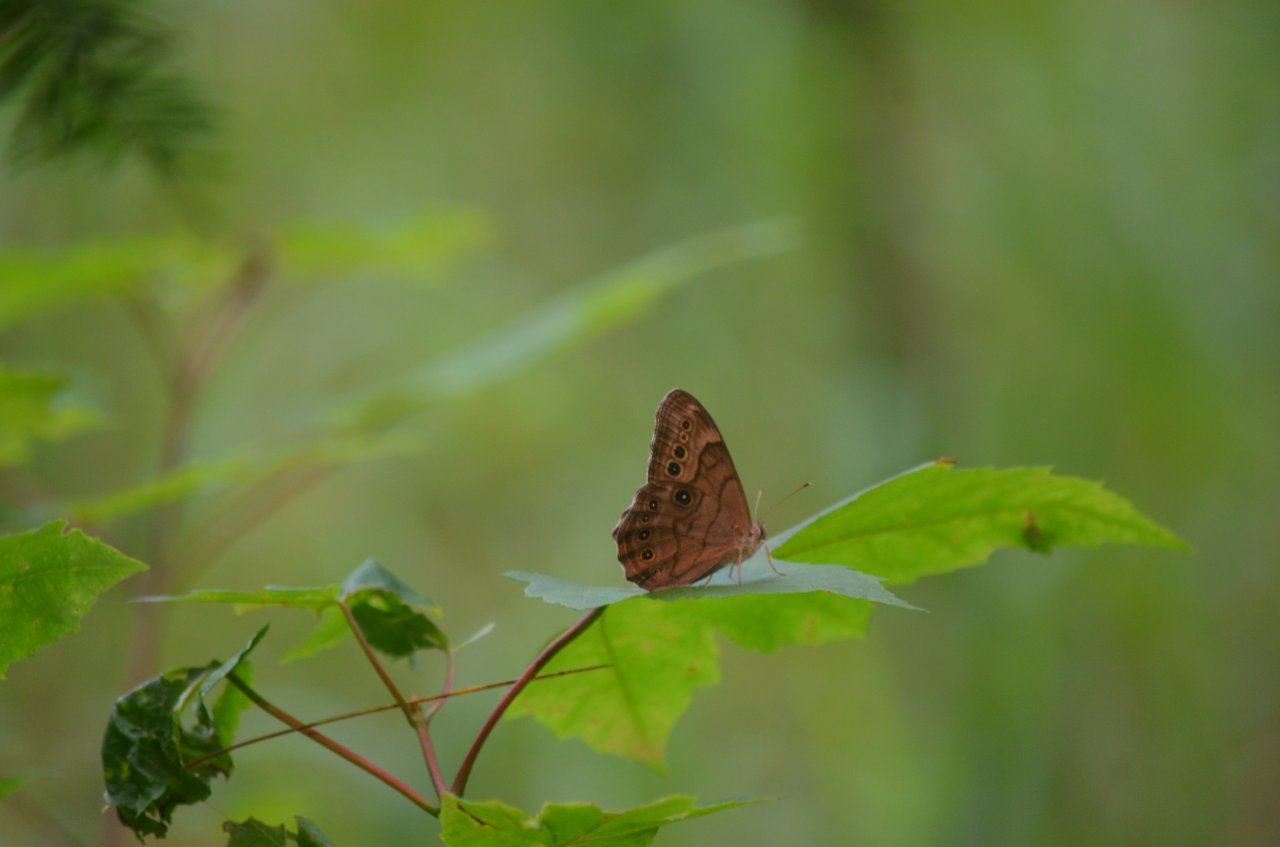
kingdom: Animalia
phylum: Arthropoda
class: Insecta
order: Lepidoptera
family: Nymphalidae
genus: Lethe
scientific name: Lethe anthedon
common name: Northern Pearly-Eye
